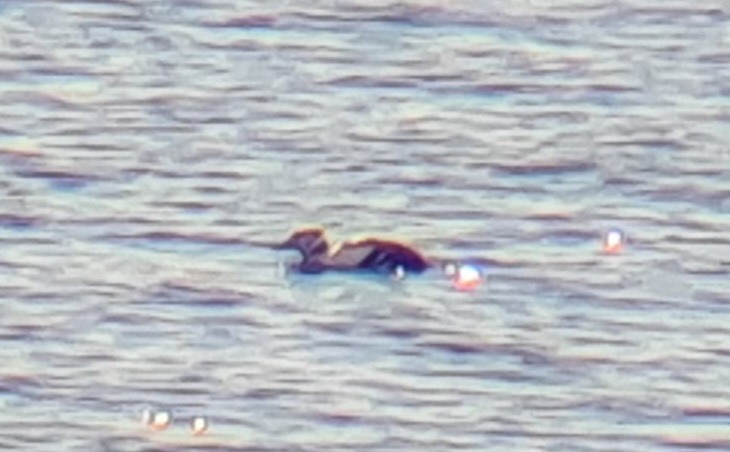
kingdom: Animalia
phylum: Chordata
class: Aves
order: Anseriformes
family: Anatidae
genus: Polysticta
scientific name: Polysticta stelleri
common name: Stellersand
